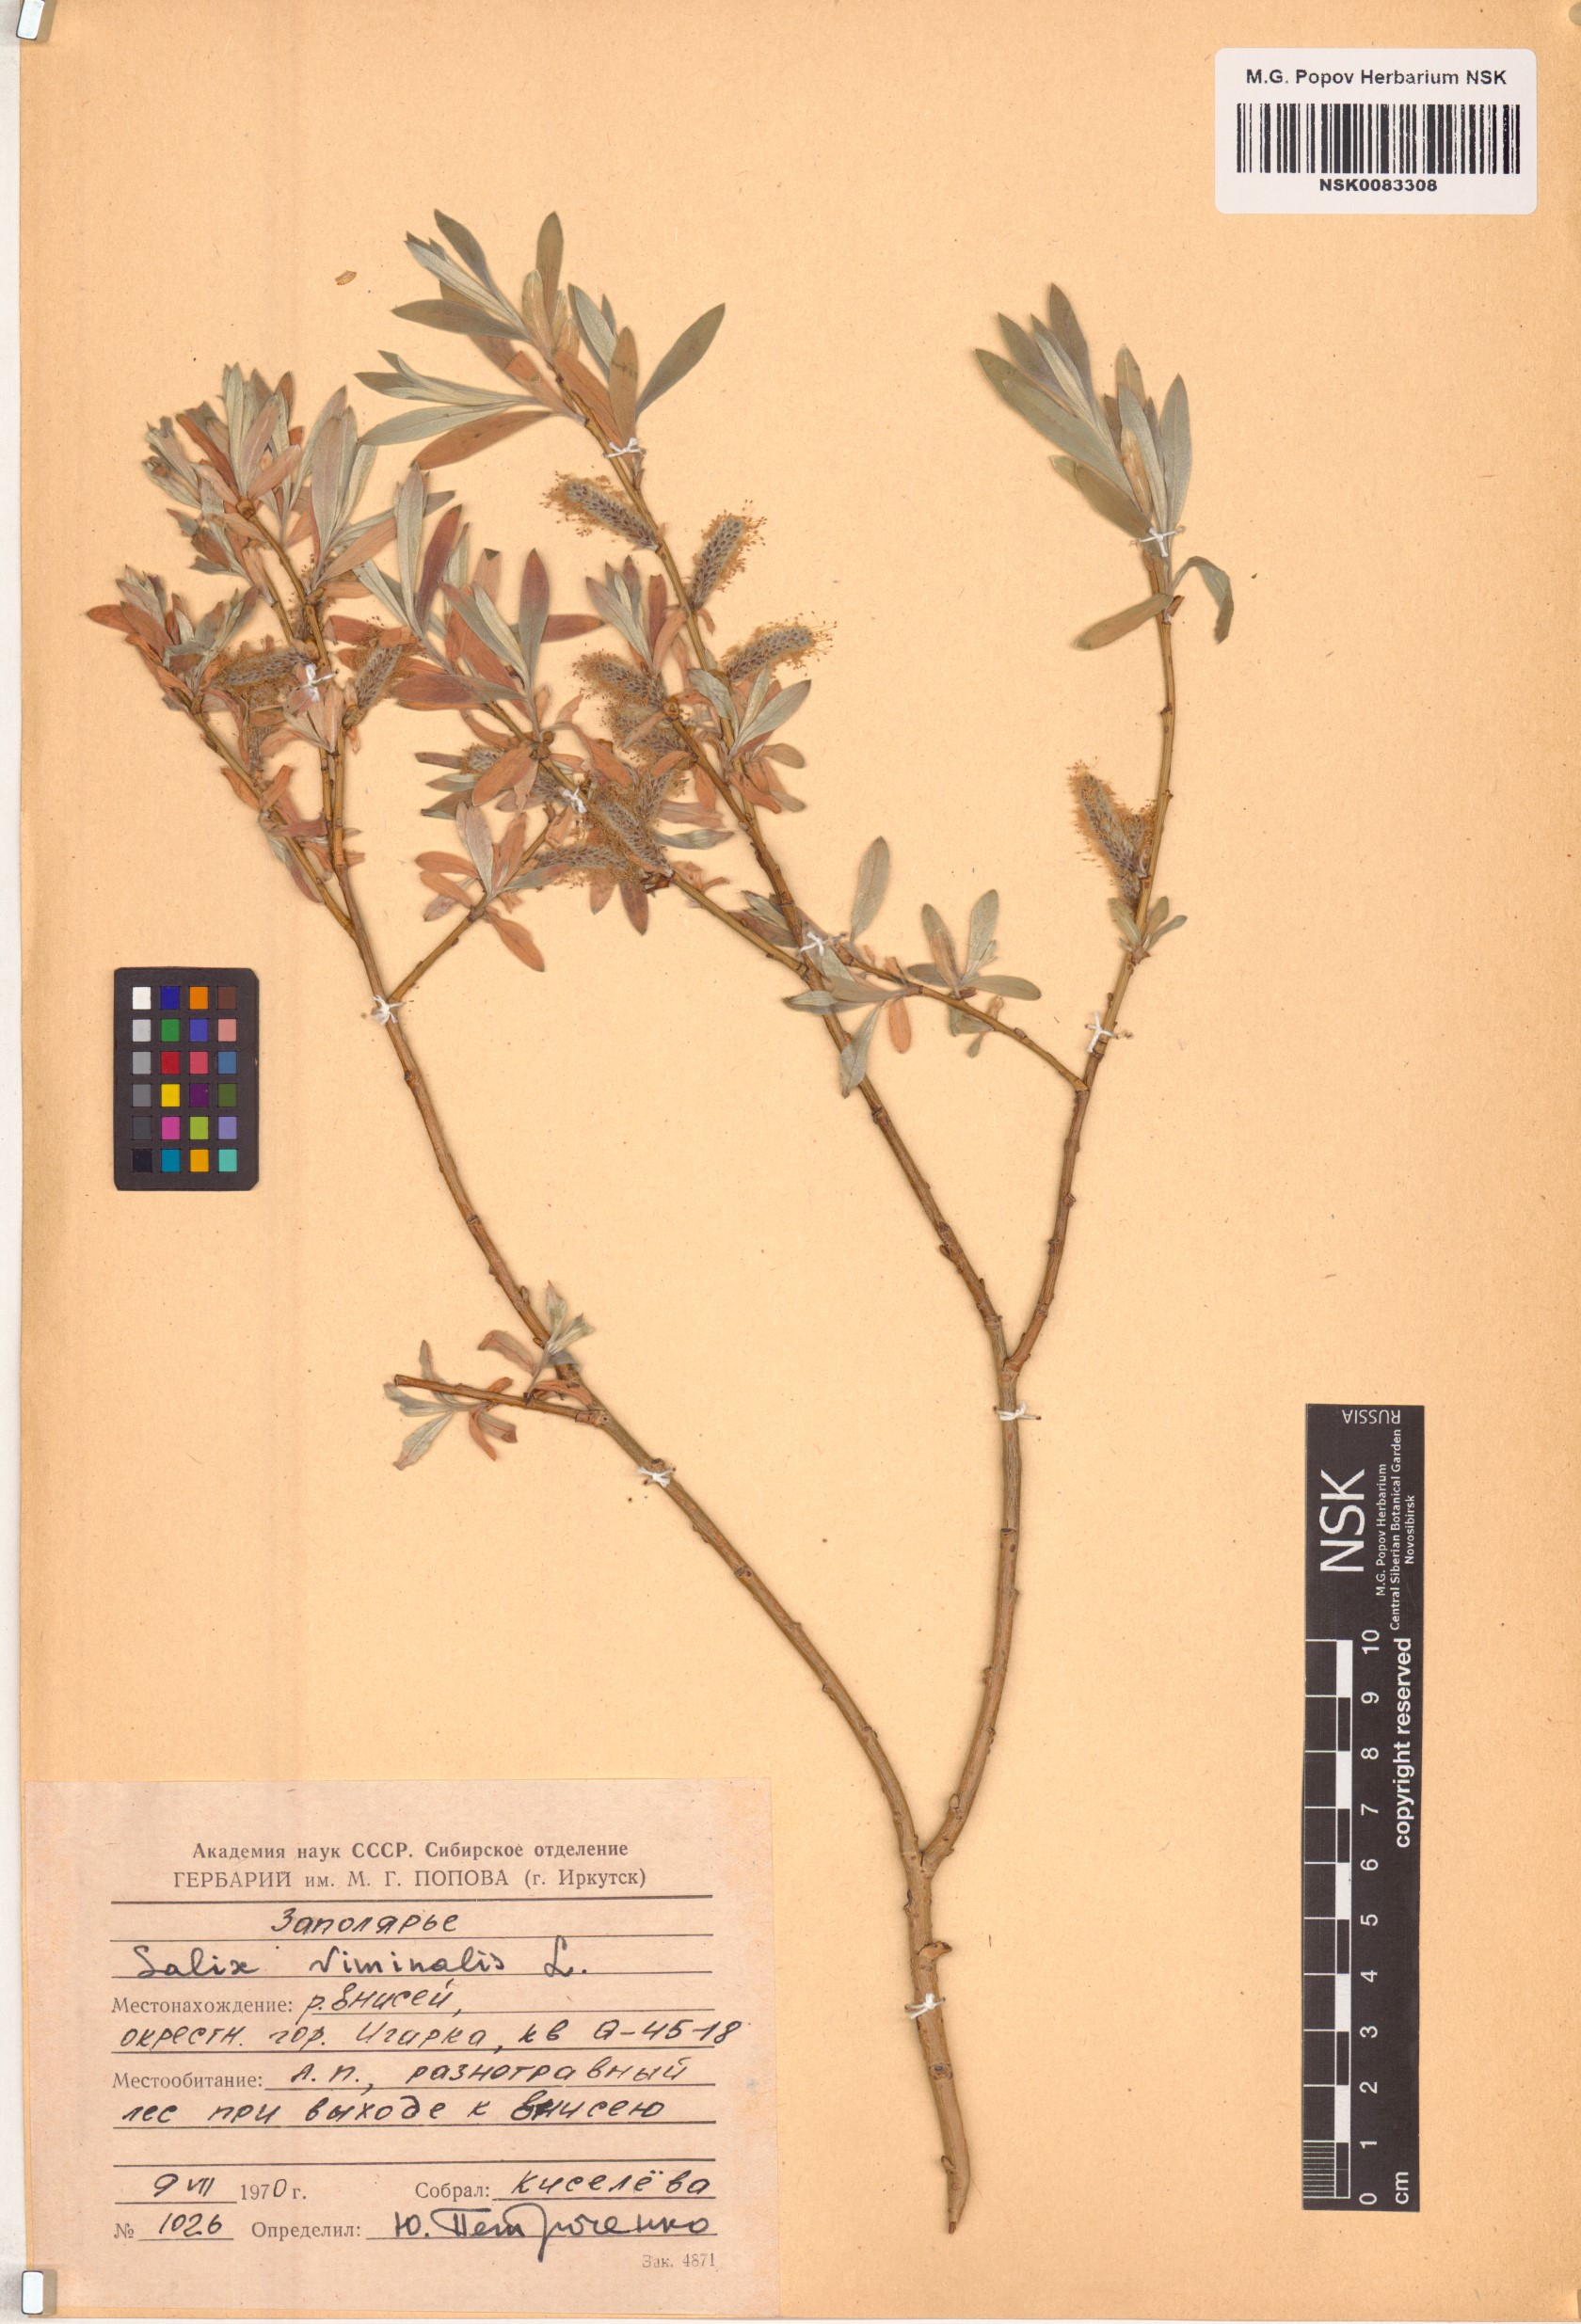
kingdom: Plantae
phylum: Tracheophyta
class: Magnoliopsida
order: Malpighiales
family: Salicaceae
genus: Salix
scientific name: Salix viminalis
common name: Osier
